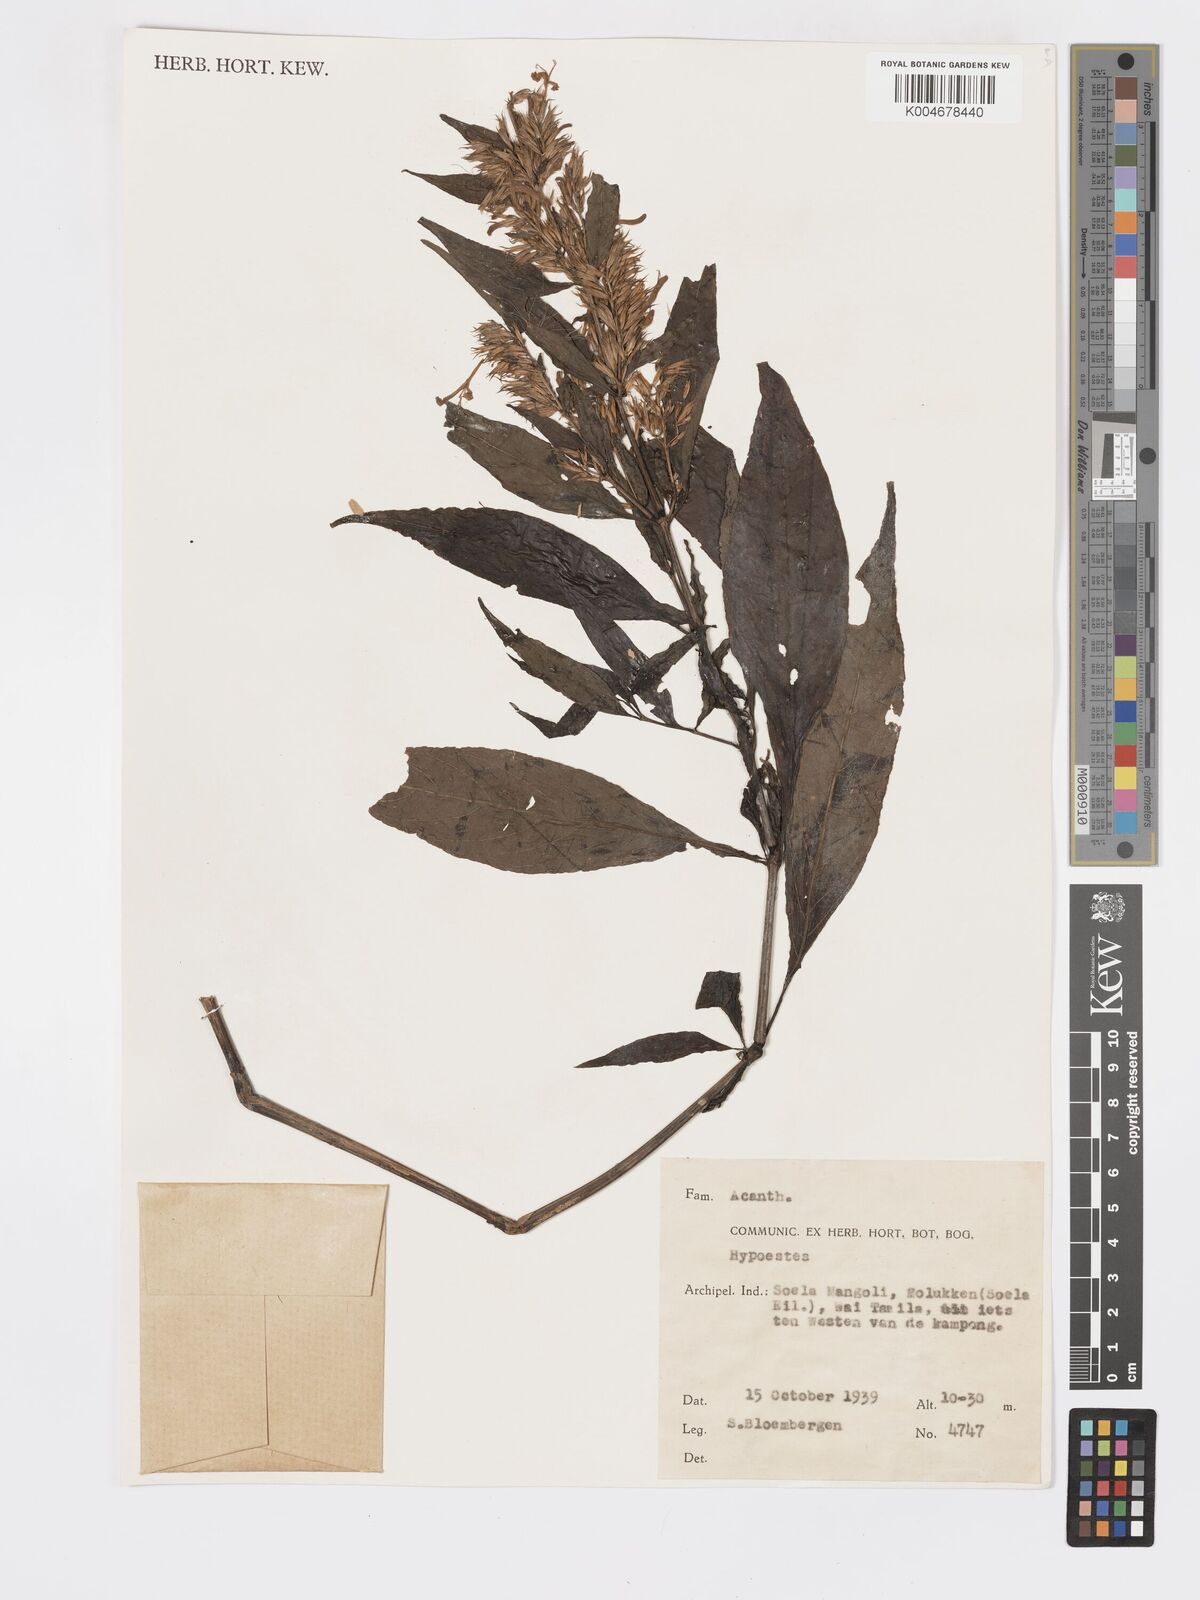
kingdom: Plantae
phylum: Tracheophyta
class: Magnoliopsida
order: Lamiales
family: Acanthaceae
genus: Hypoestes
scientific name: Hypoestes
